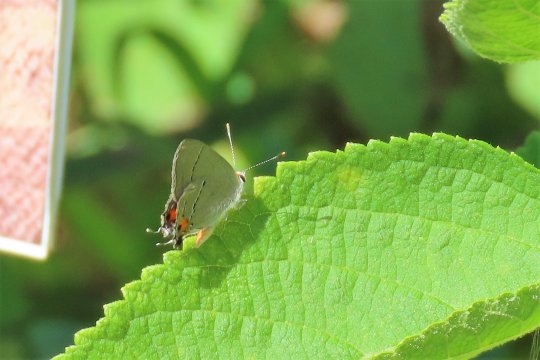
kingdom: Animalia
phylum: Arthropoda
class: Insecta
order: Lepidoptera
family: Lycaenidae
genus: Strymon
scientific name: Strymon melinus
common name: Gray Hairstreak
